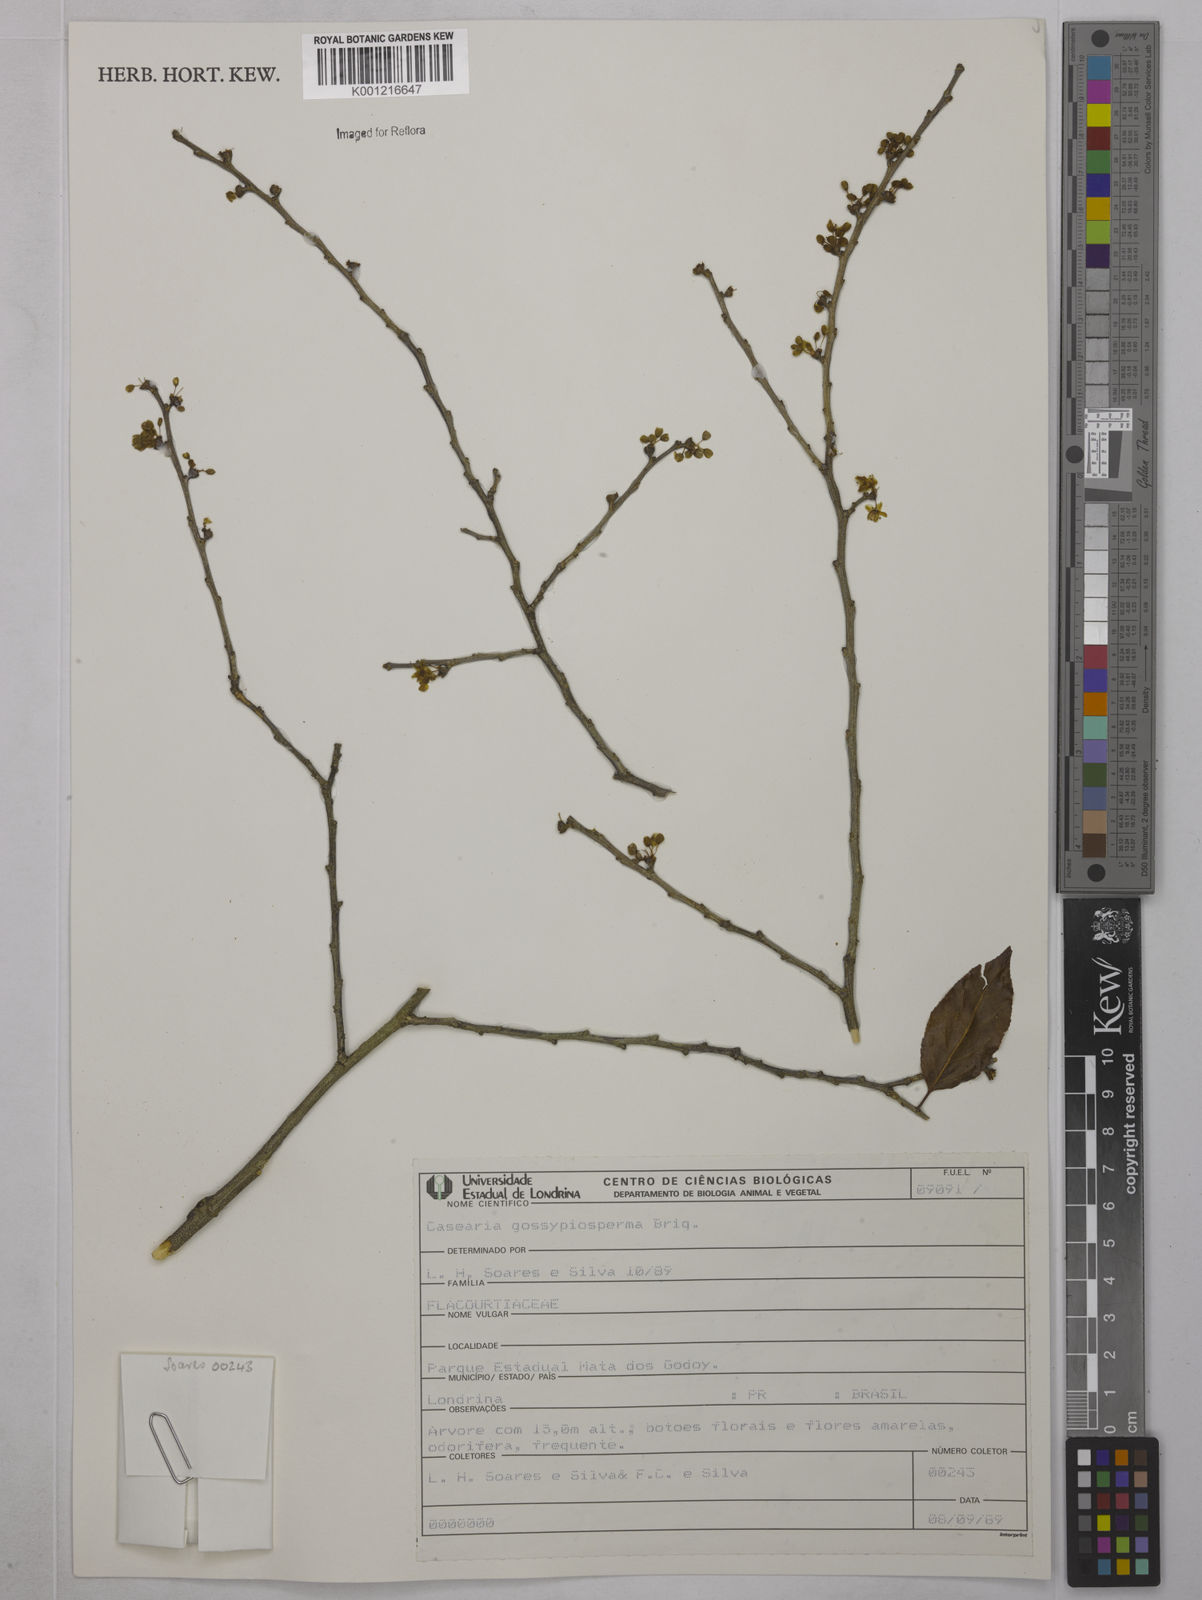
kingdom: Plantae
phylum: Tracheophyta
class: Magnoliopsida
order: Malpighiales
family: Salicaceae
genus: Casearia
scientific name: Casearia gossypiosperma
